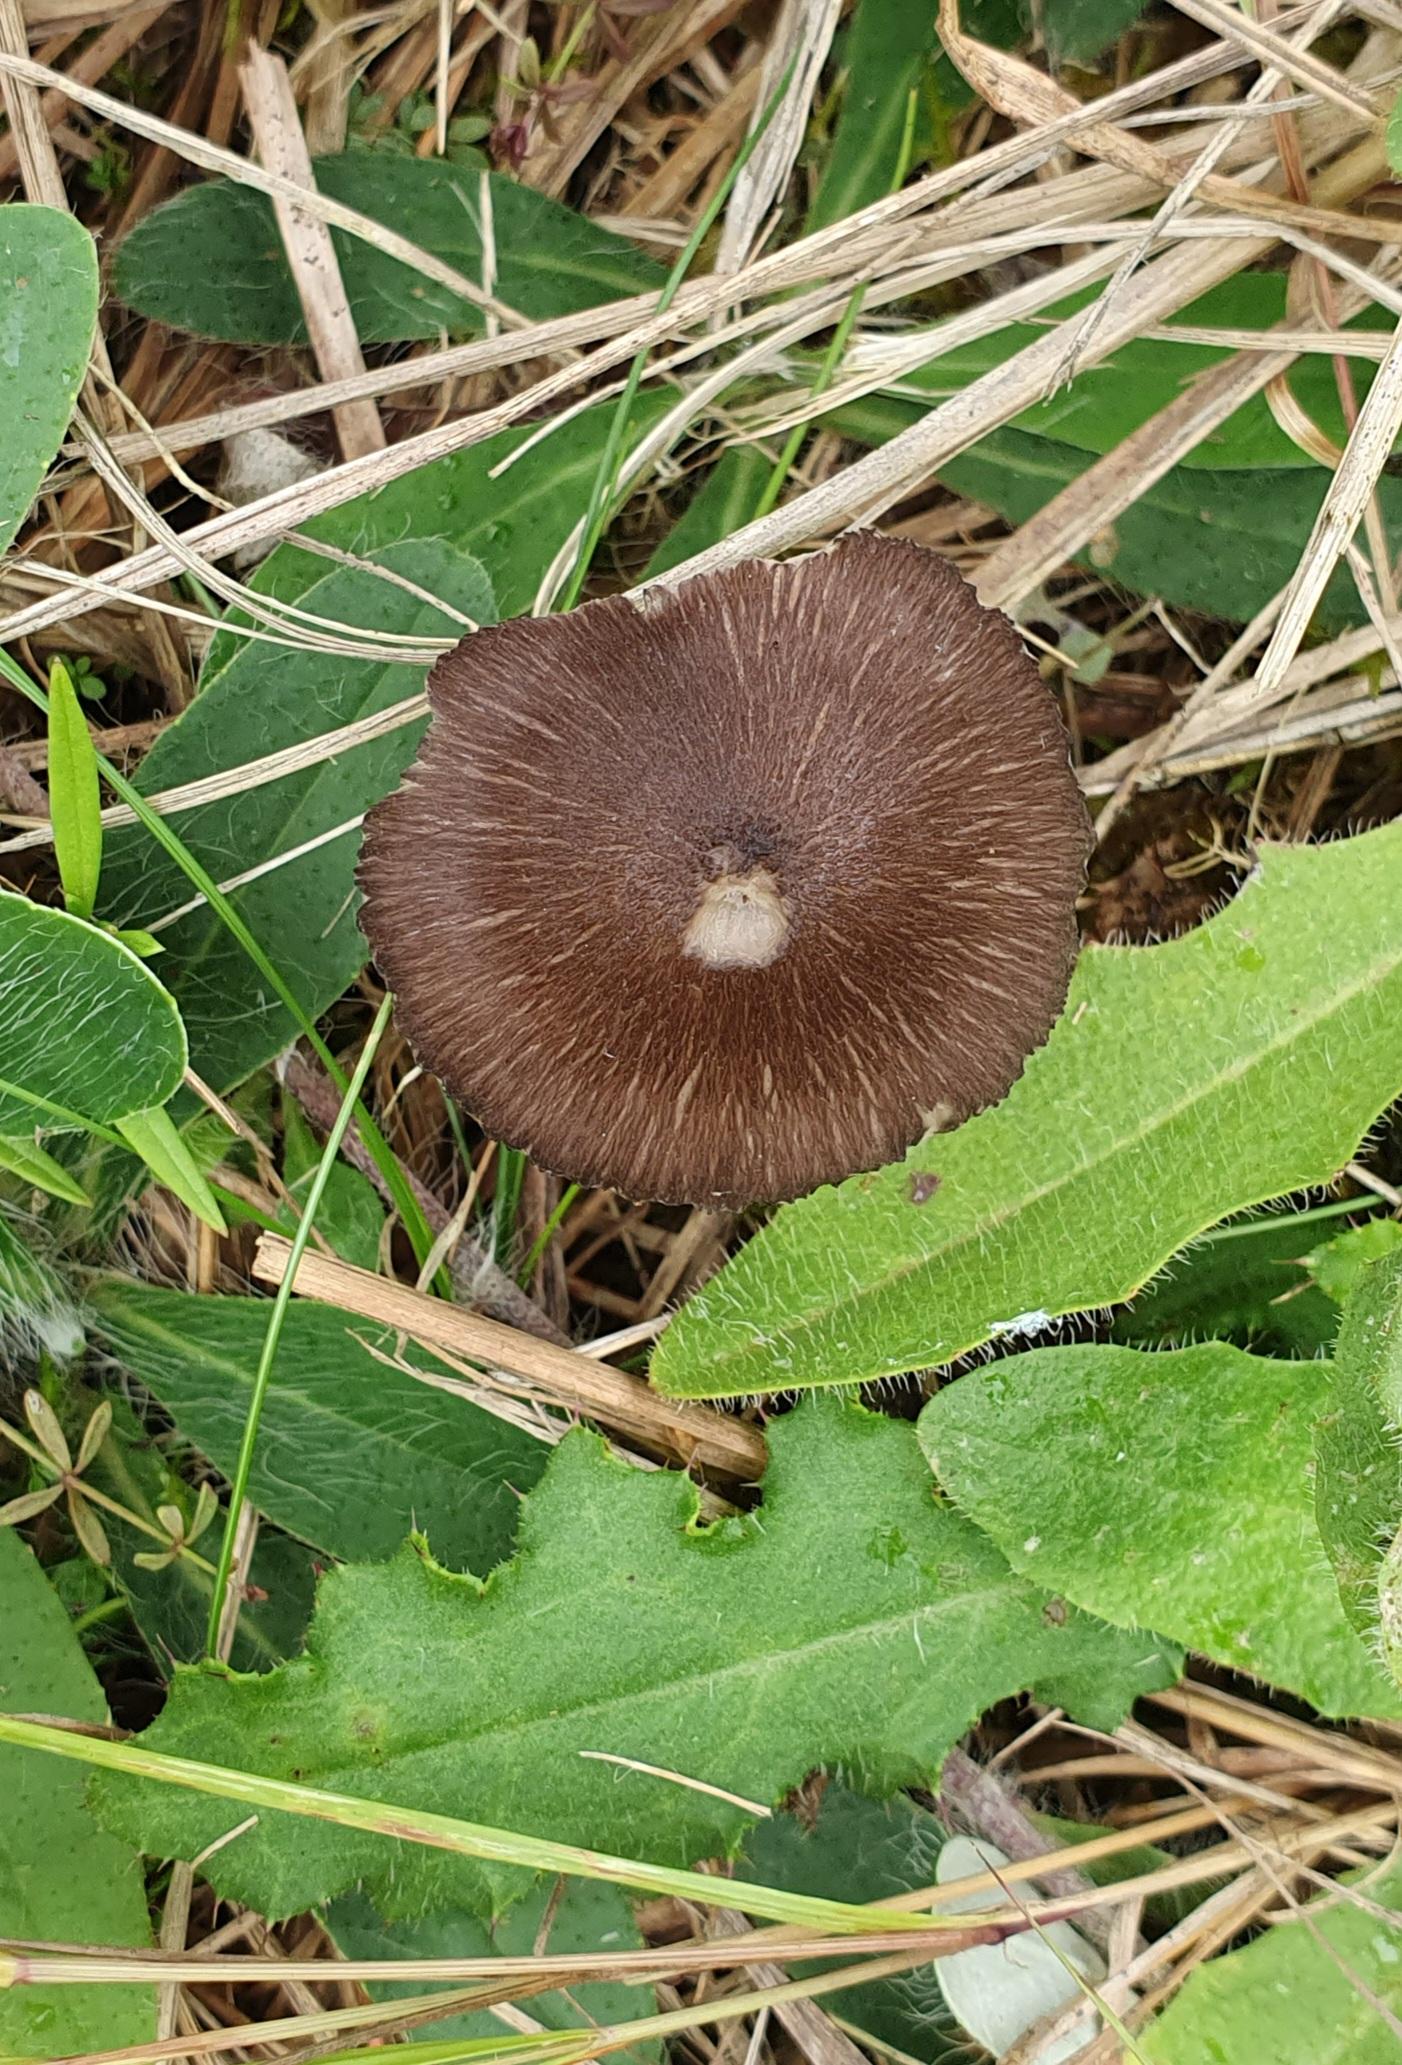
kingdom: Fungi
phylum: Basidiomycota
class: Agaricomycetes
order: Agaricales
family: Entolomataceae
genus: Entoloma
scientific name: Entoloma
